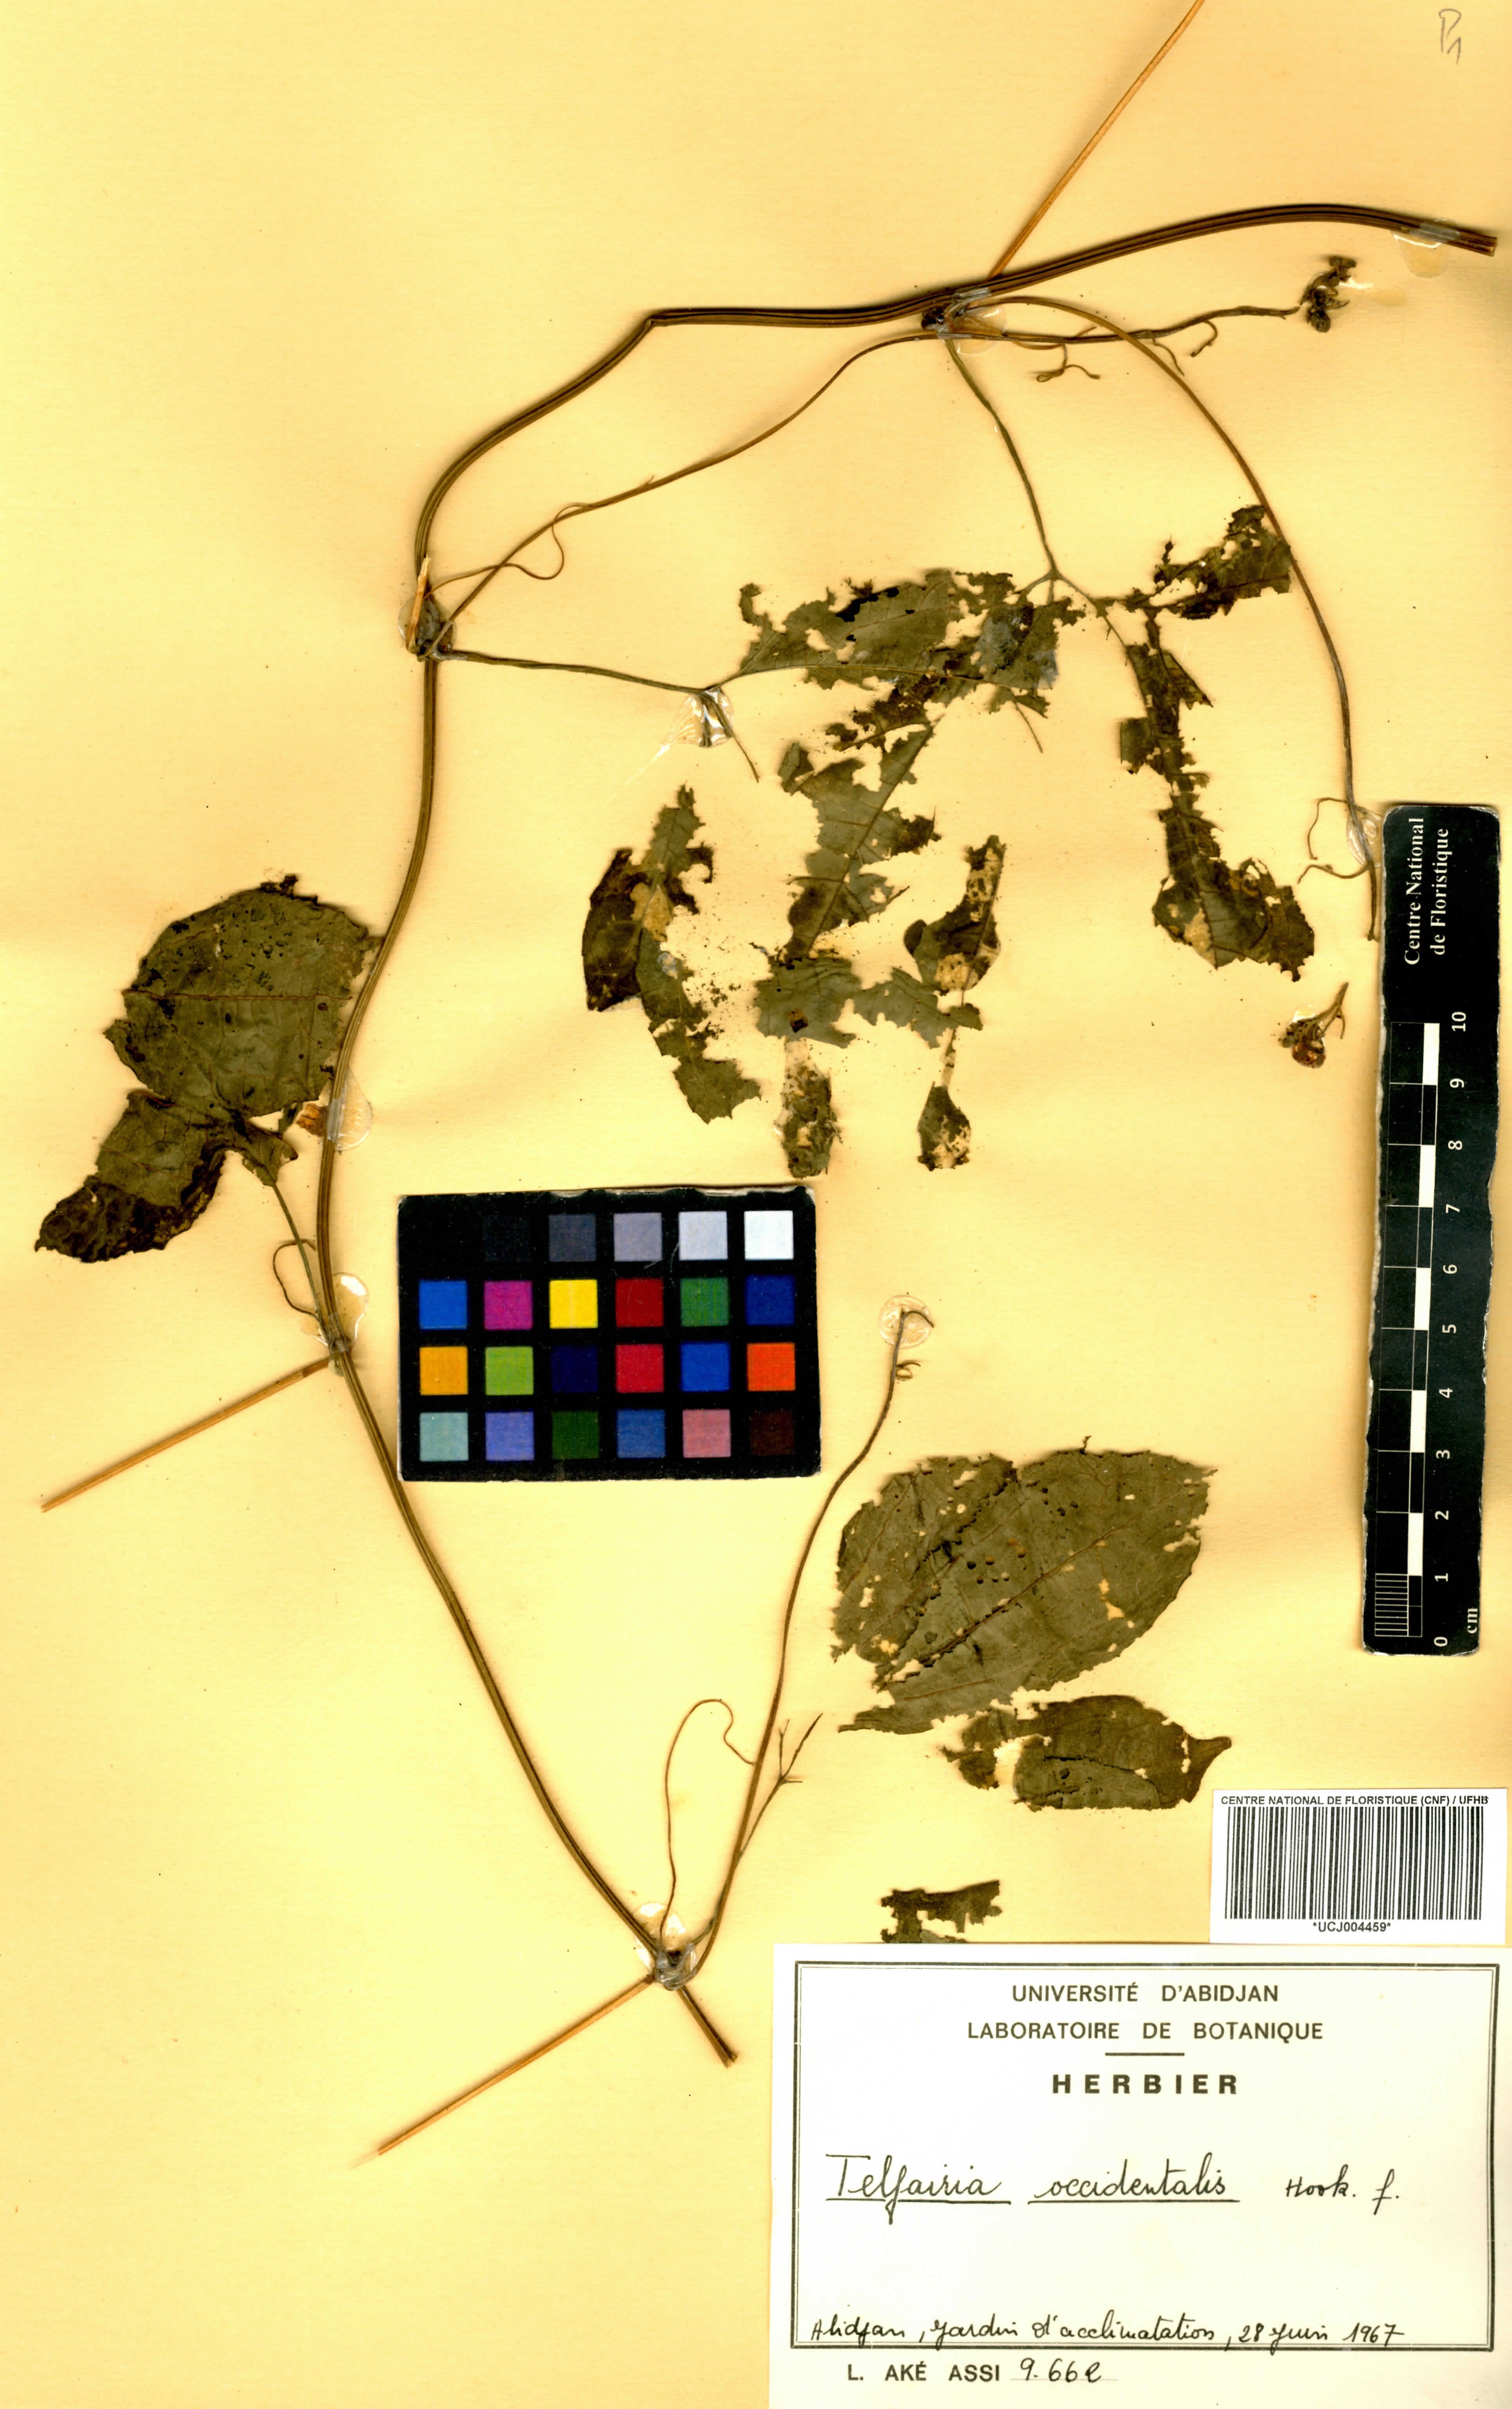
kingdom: Plantae
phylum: Tracheophyta
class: Magnoliopsida
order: Cucurbitales
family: Cucurbitaceae
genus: Telfairia
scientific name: Telfairia occidentalis
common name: Oysternut
